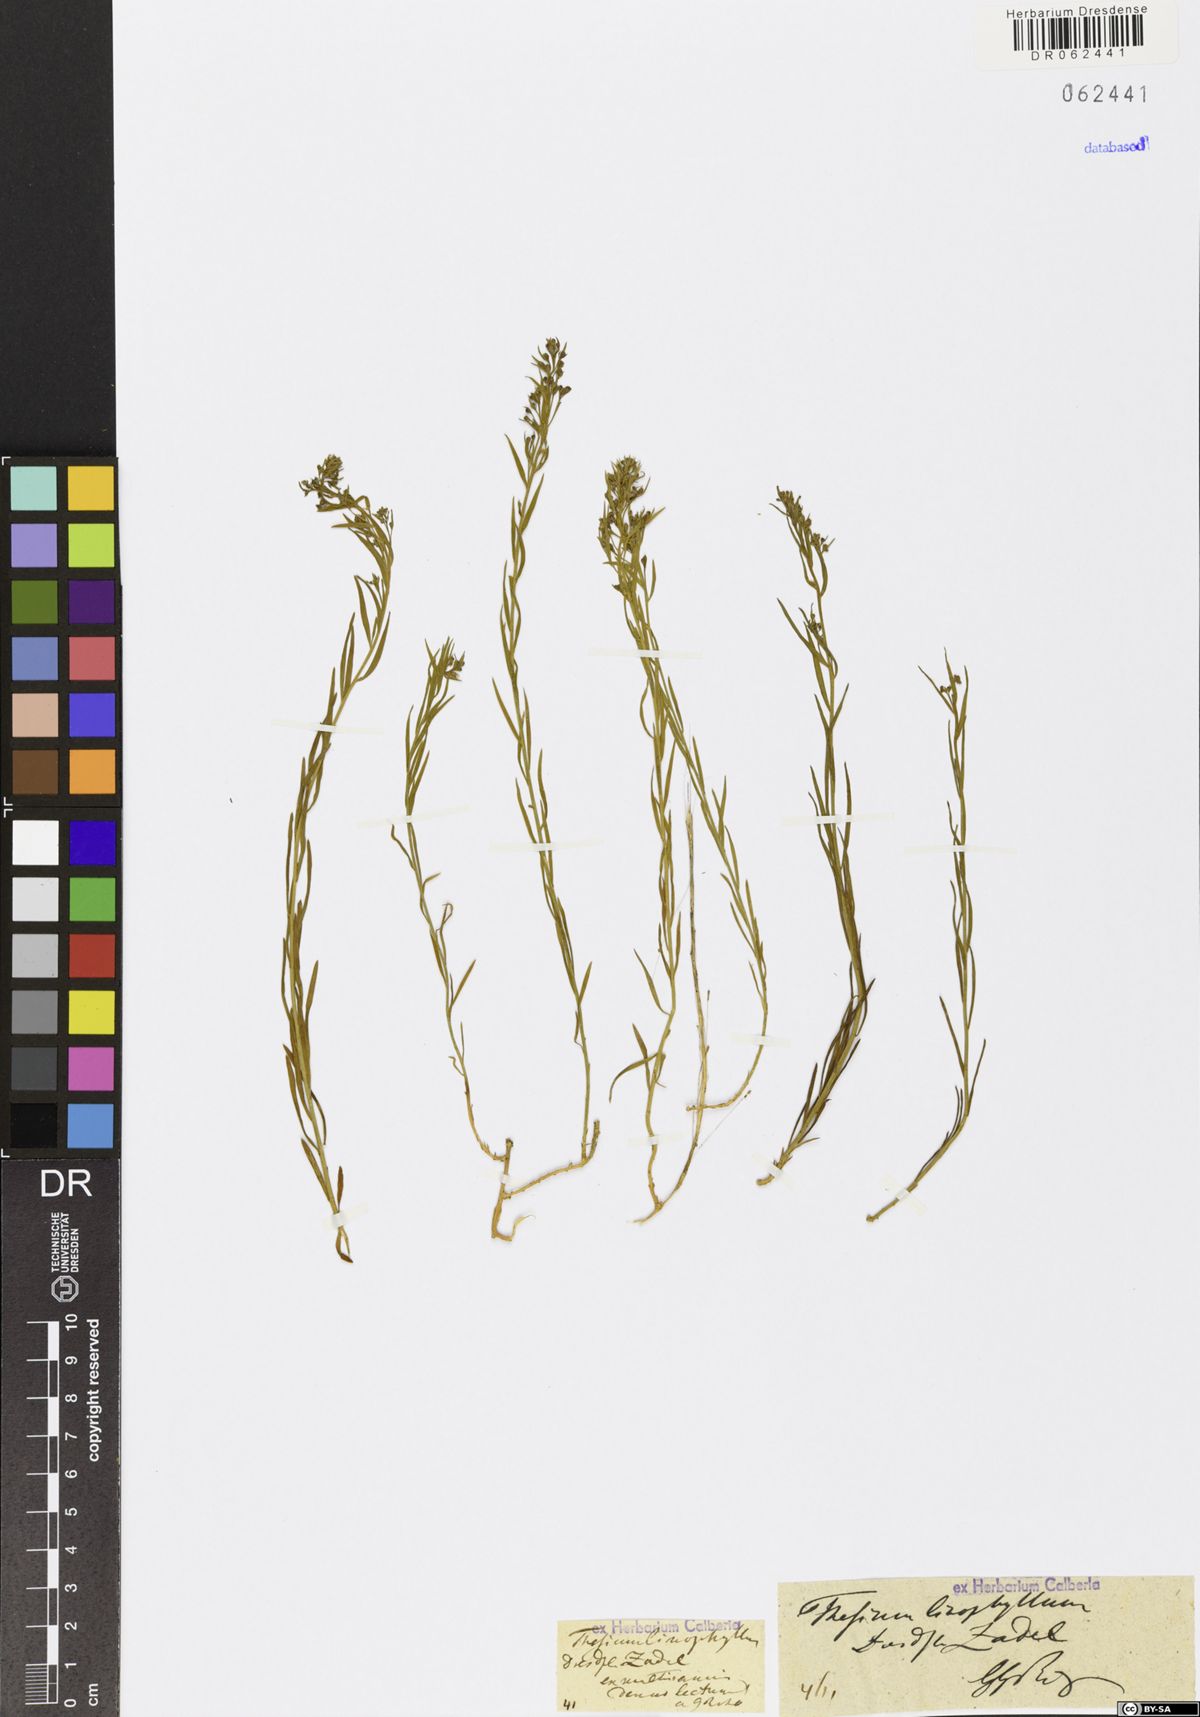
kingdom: Plantae
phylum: Tracheophyta
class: Magnoliopsida
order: Santalales
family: Thesiaceae
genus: Thesium
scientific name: Thesium linophyllon
